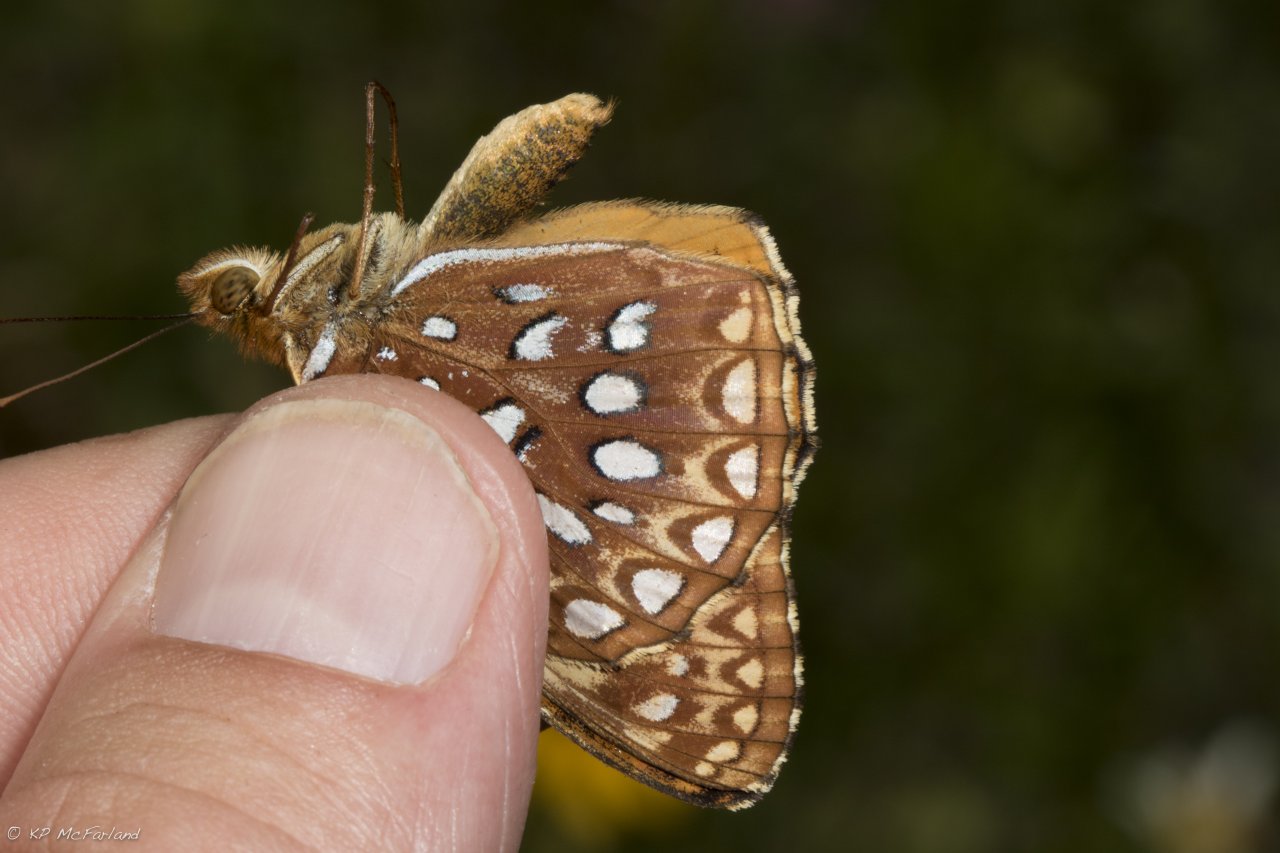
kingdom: Animalia
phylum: Arthropoda
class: Insecta
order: Lepidoptera
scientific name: Lepidoptera
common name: Butterflies
